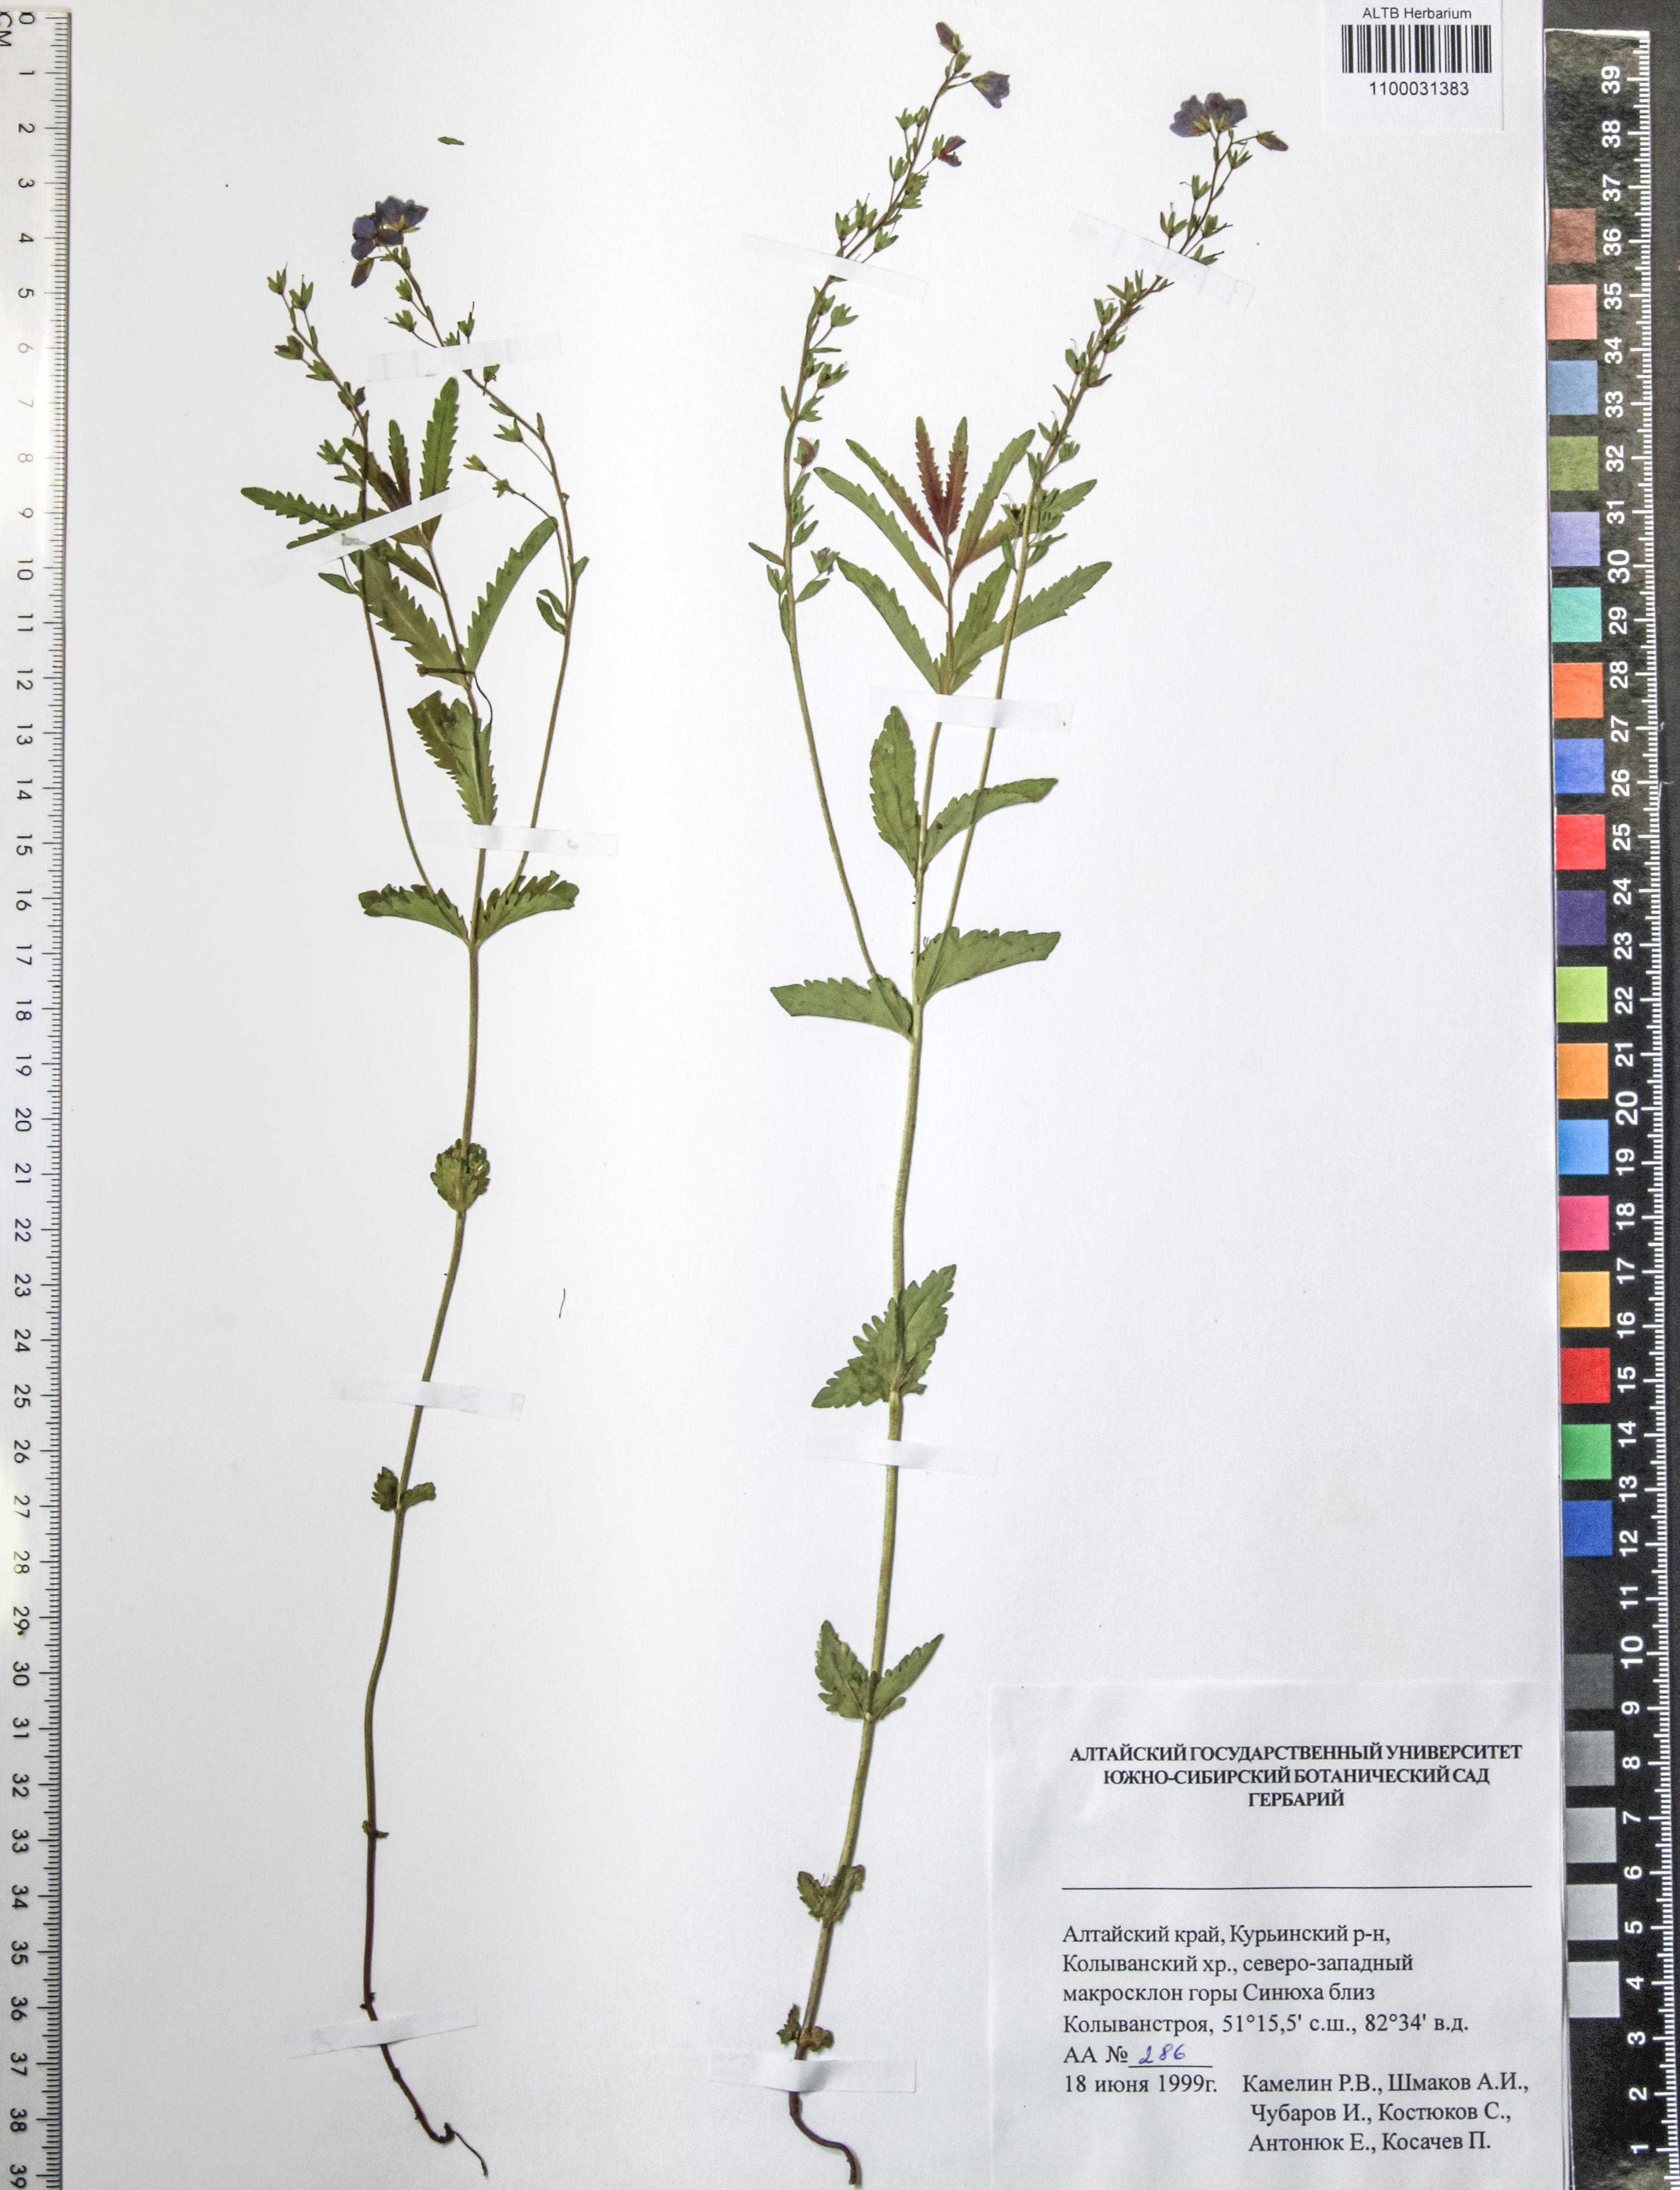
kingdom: Plantae
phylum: Tracheophyta
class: Magnoliopsida
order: Lamiales
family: Plantaginaceae
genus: Veronica
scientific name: Veronica krylovii
